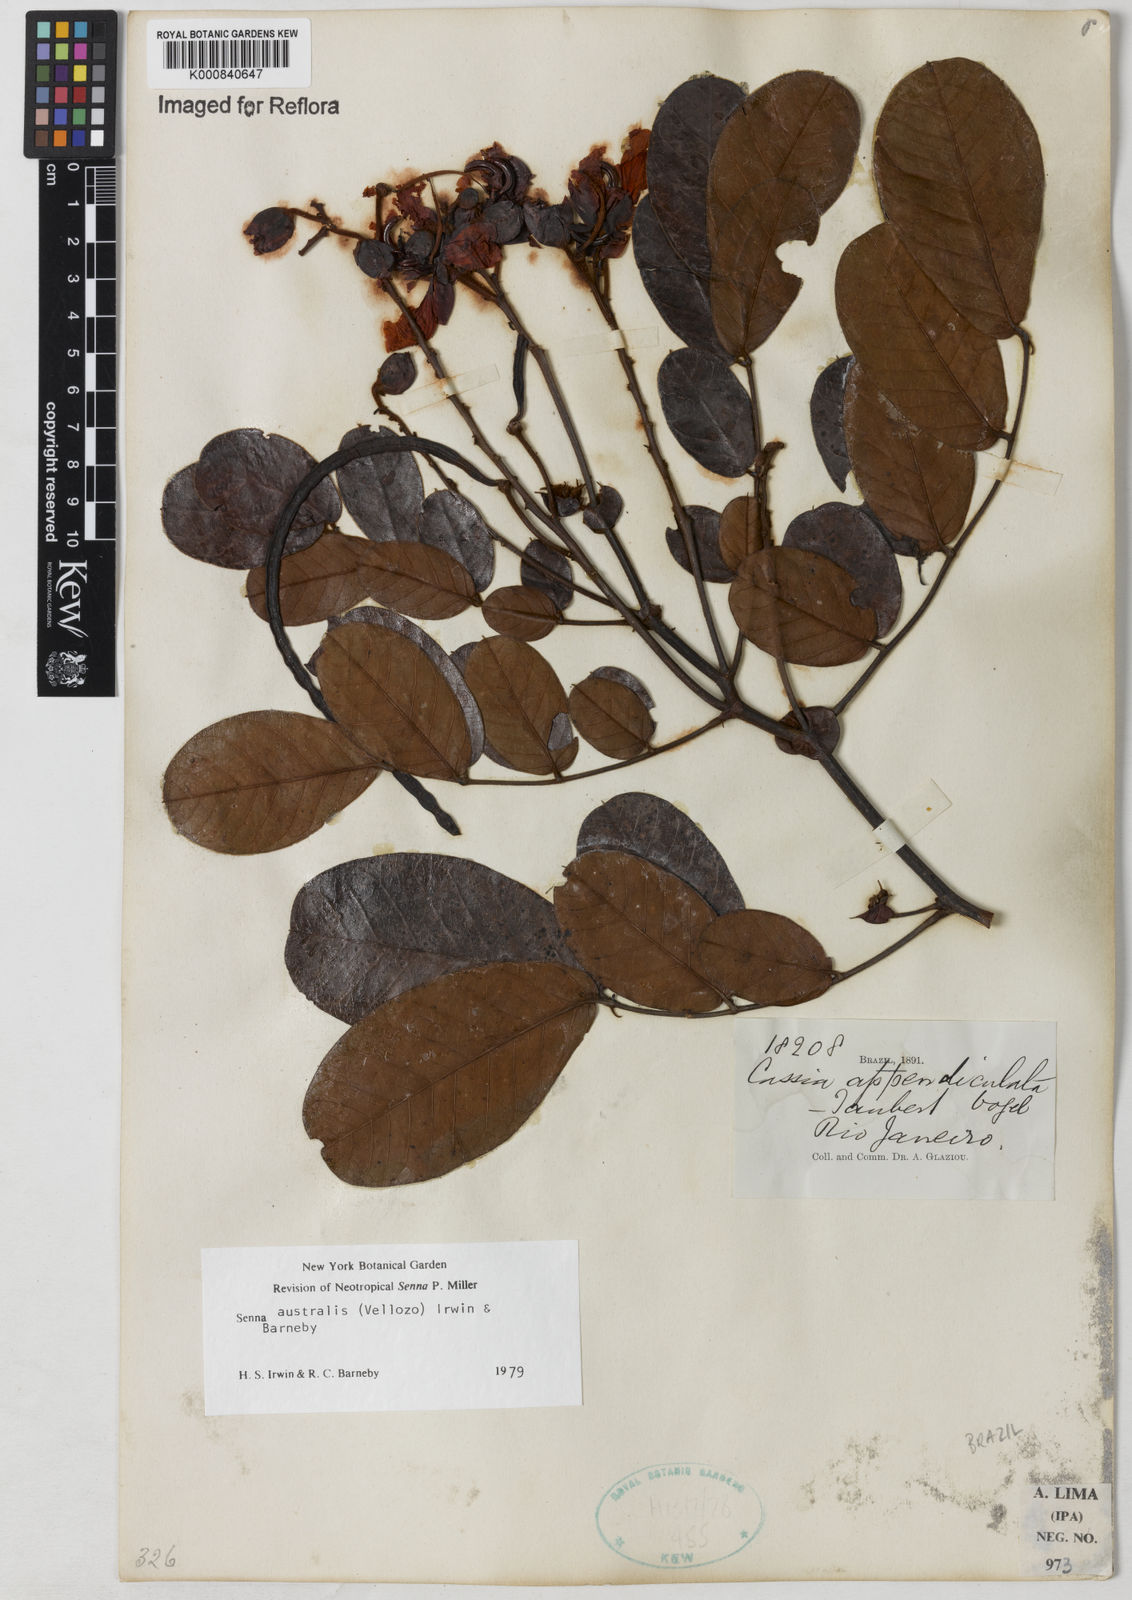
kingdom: Plantae
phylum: Tracheophyta
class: Magnoliopsida
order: Fabales
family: Fabaceae
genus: Senna
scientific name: Senna appendiculata
